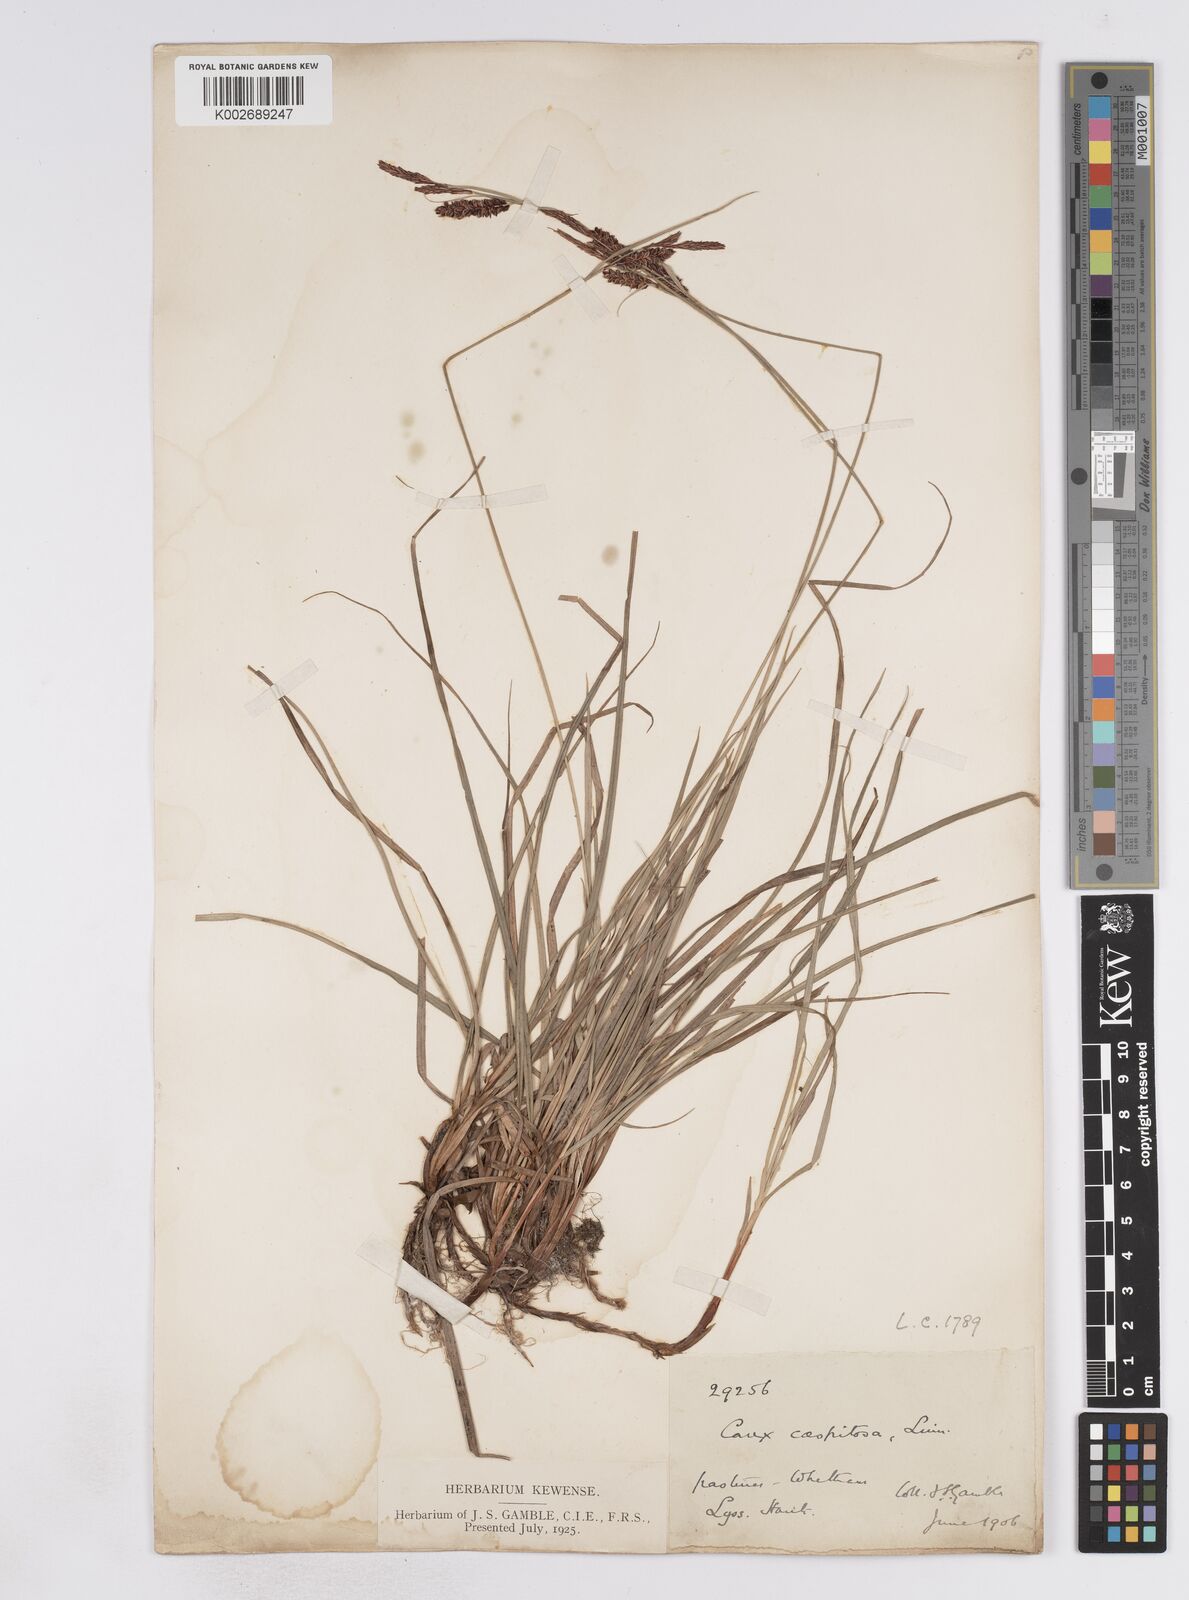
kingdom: Plantae
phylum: Tracheophyta
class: Liliopsida
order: Poales
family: Cyperaceae
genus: Carex
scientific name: Carex flacca
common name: Glaucous sedge
